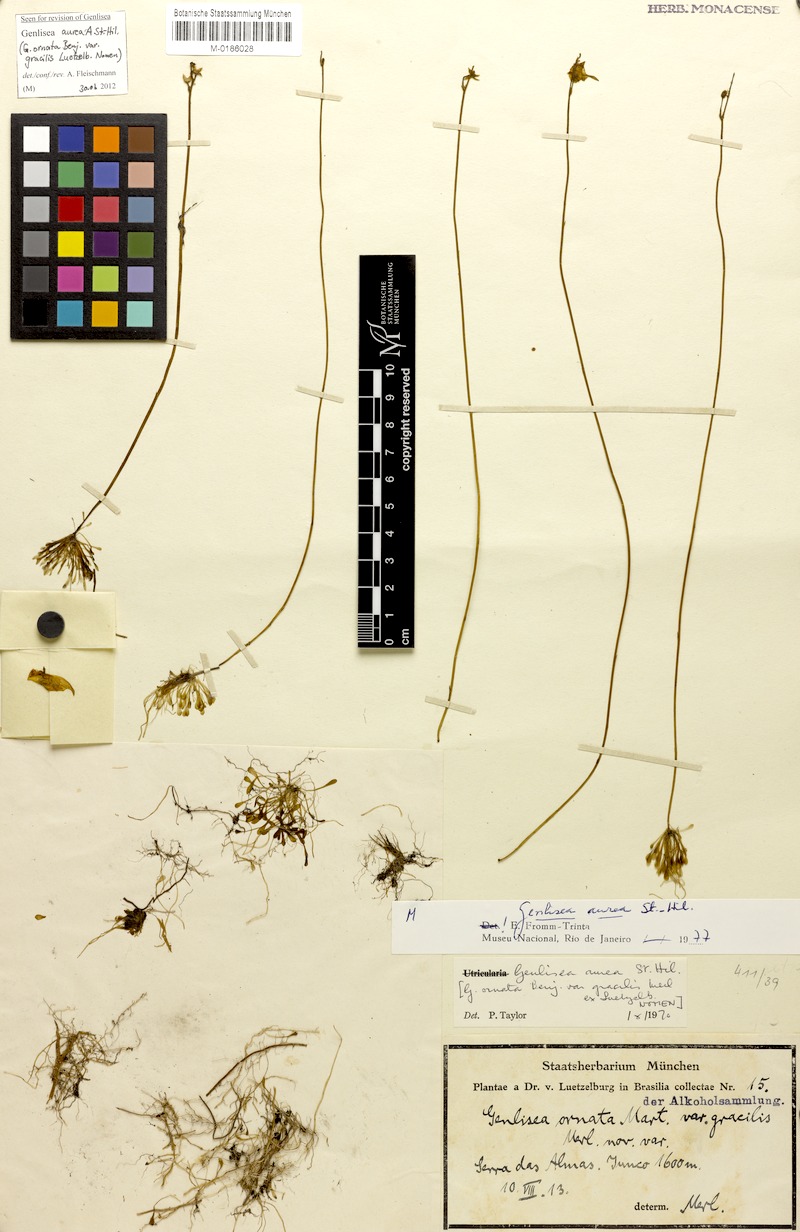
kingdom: Plantae
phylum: Tracheophyta
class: Magnoliopsida
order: Lamiales
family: Lentibulariaceae
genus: Genlisea
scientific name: Genlisea aurea
